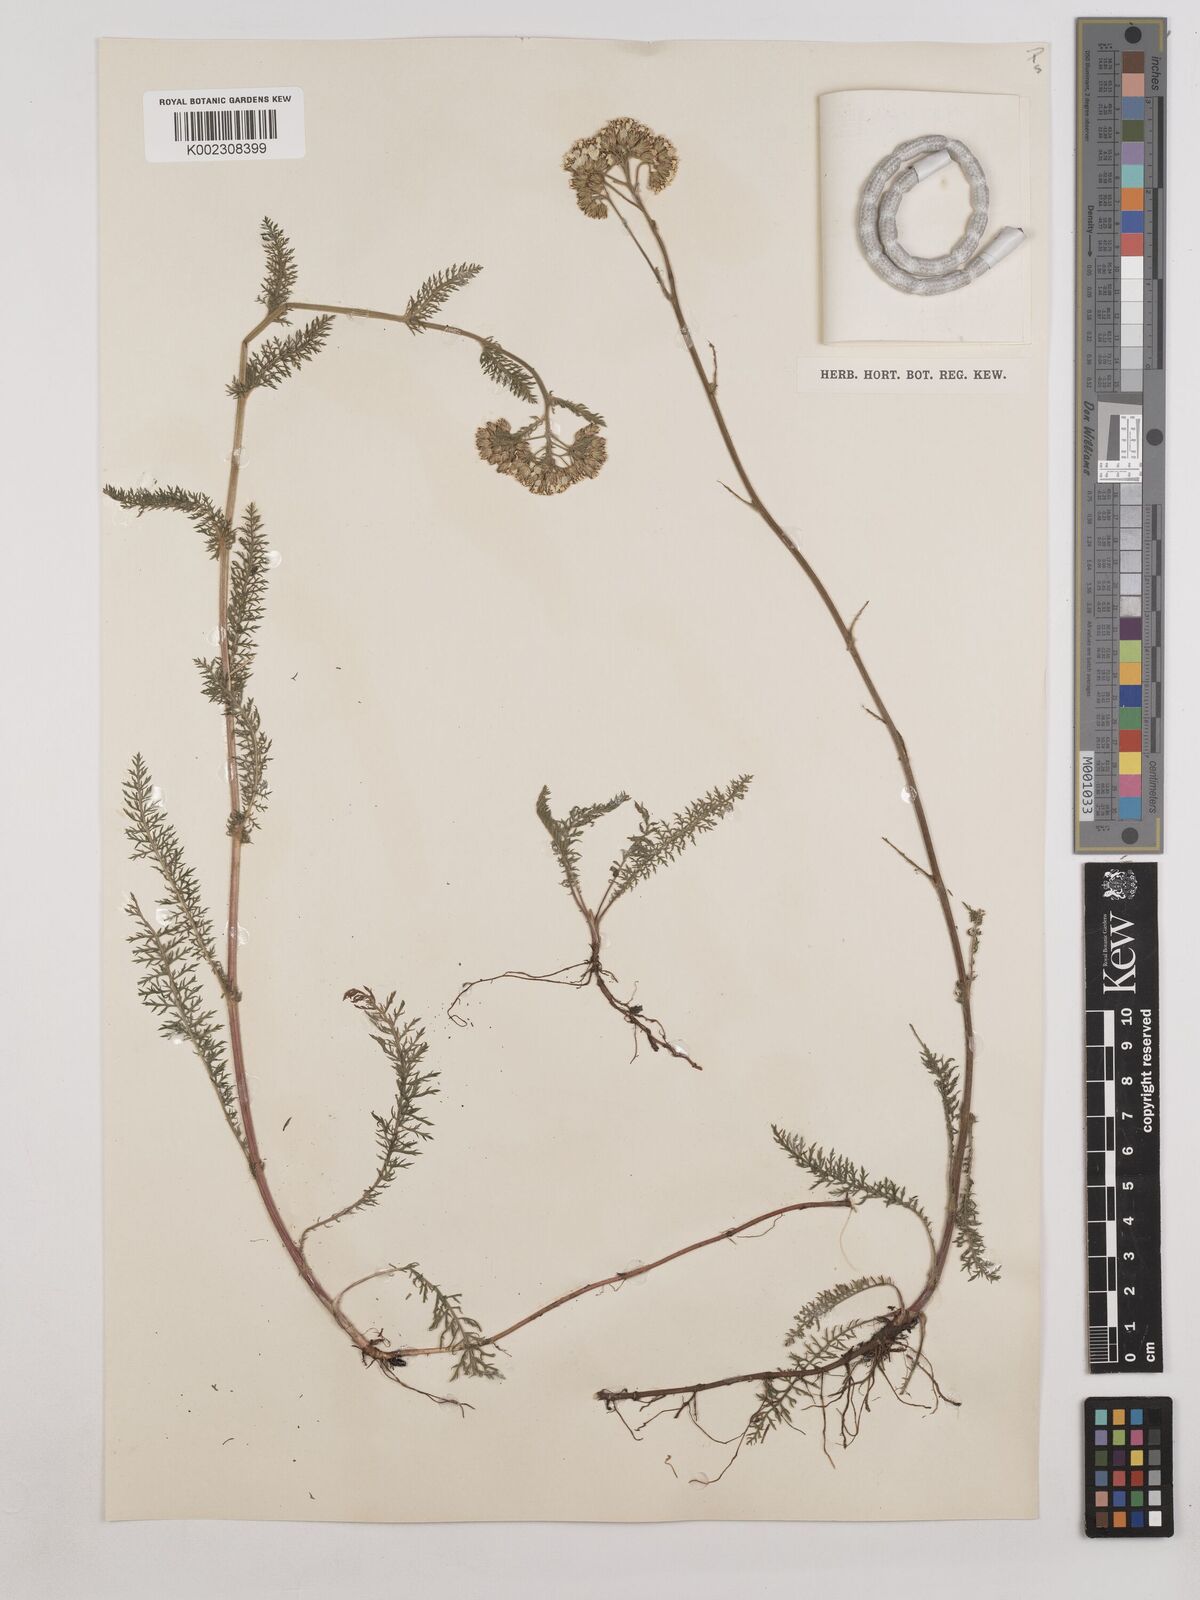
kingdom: Plantae
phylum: Tracheophyta
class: Magnoliopsida
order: Asterales
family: Asteraceae
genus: Achillea
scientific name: Achillea millefolium
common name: Yarrow
